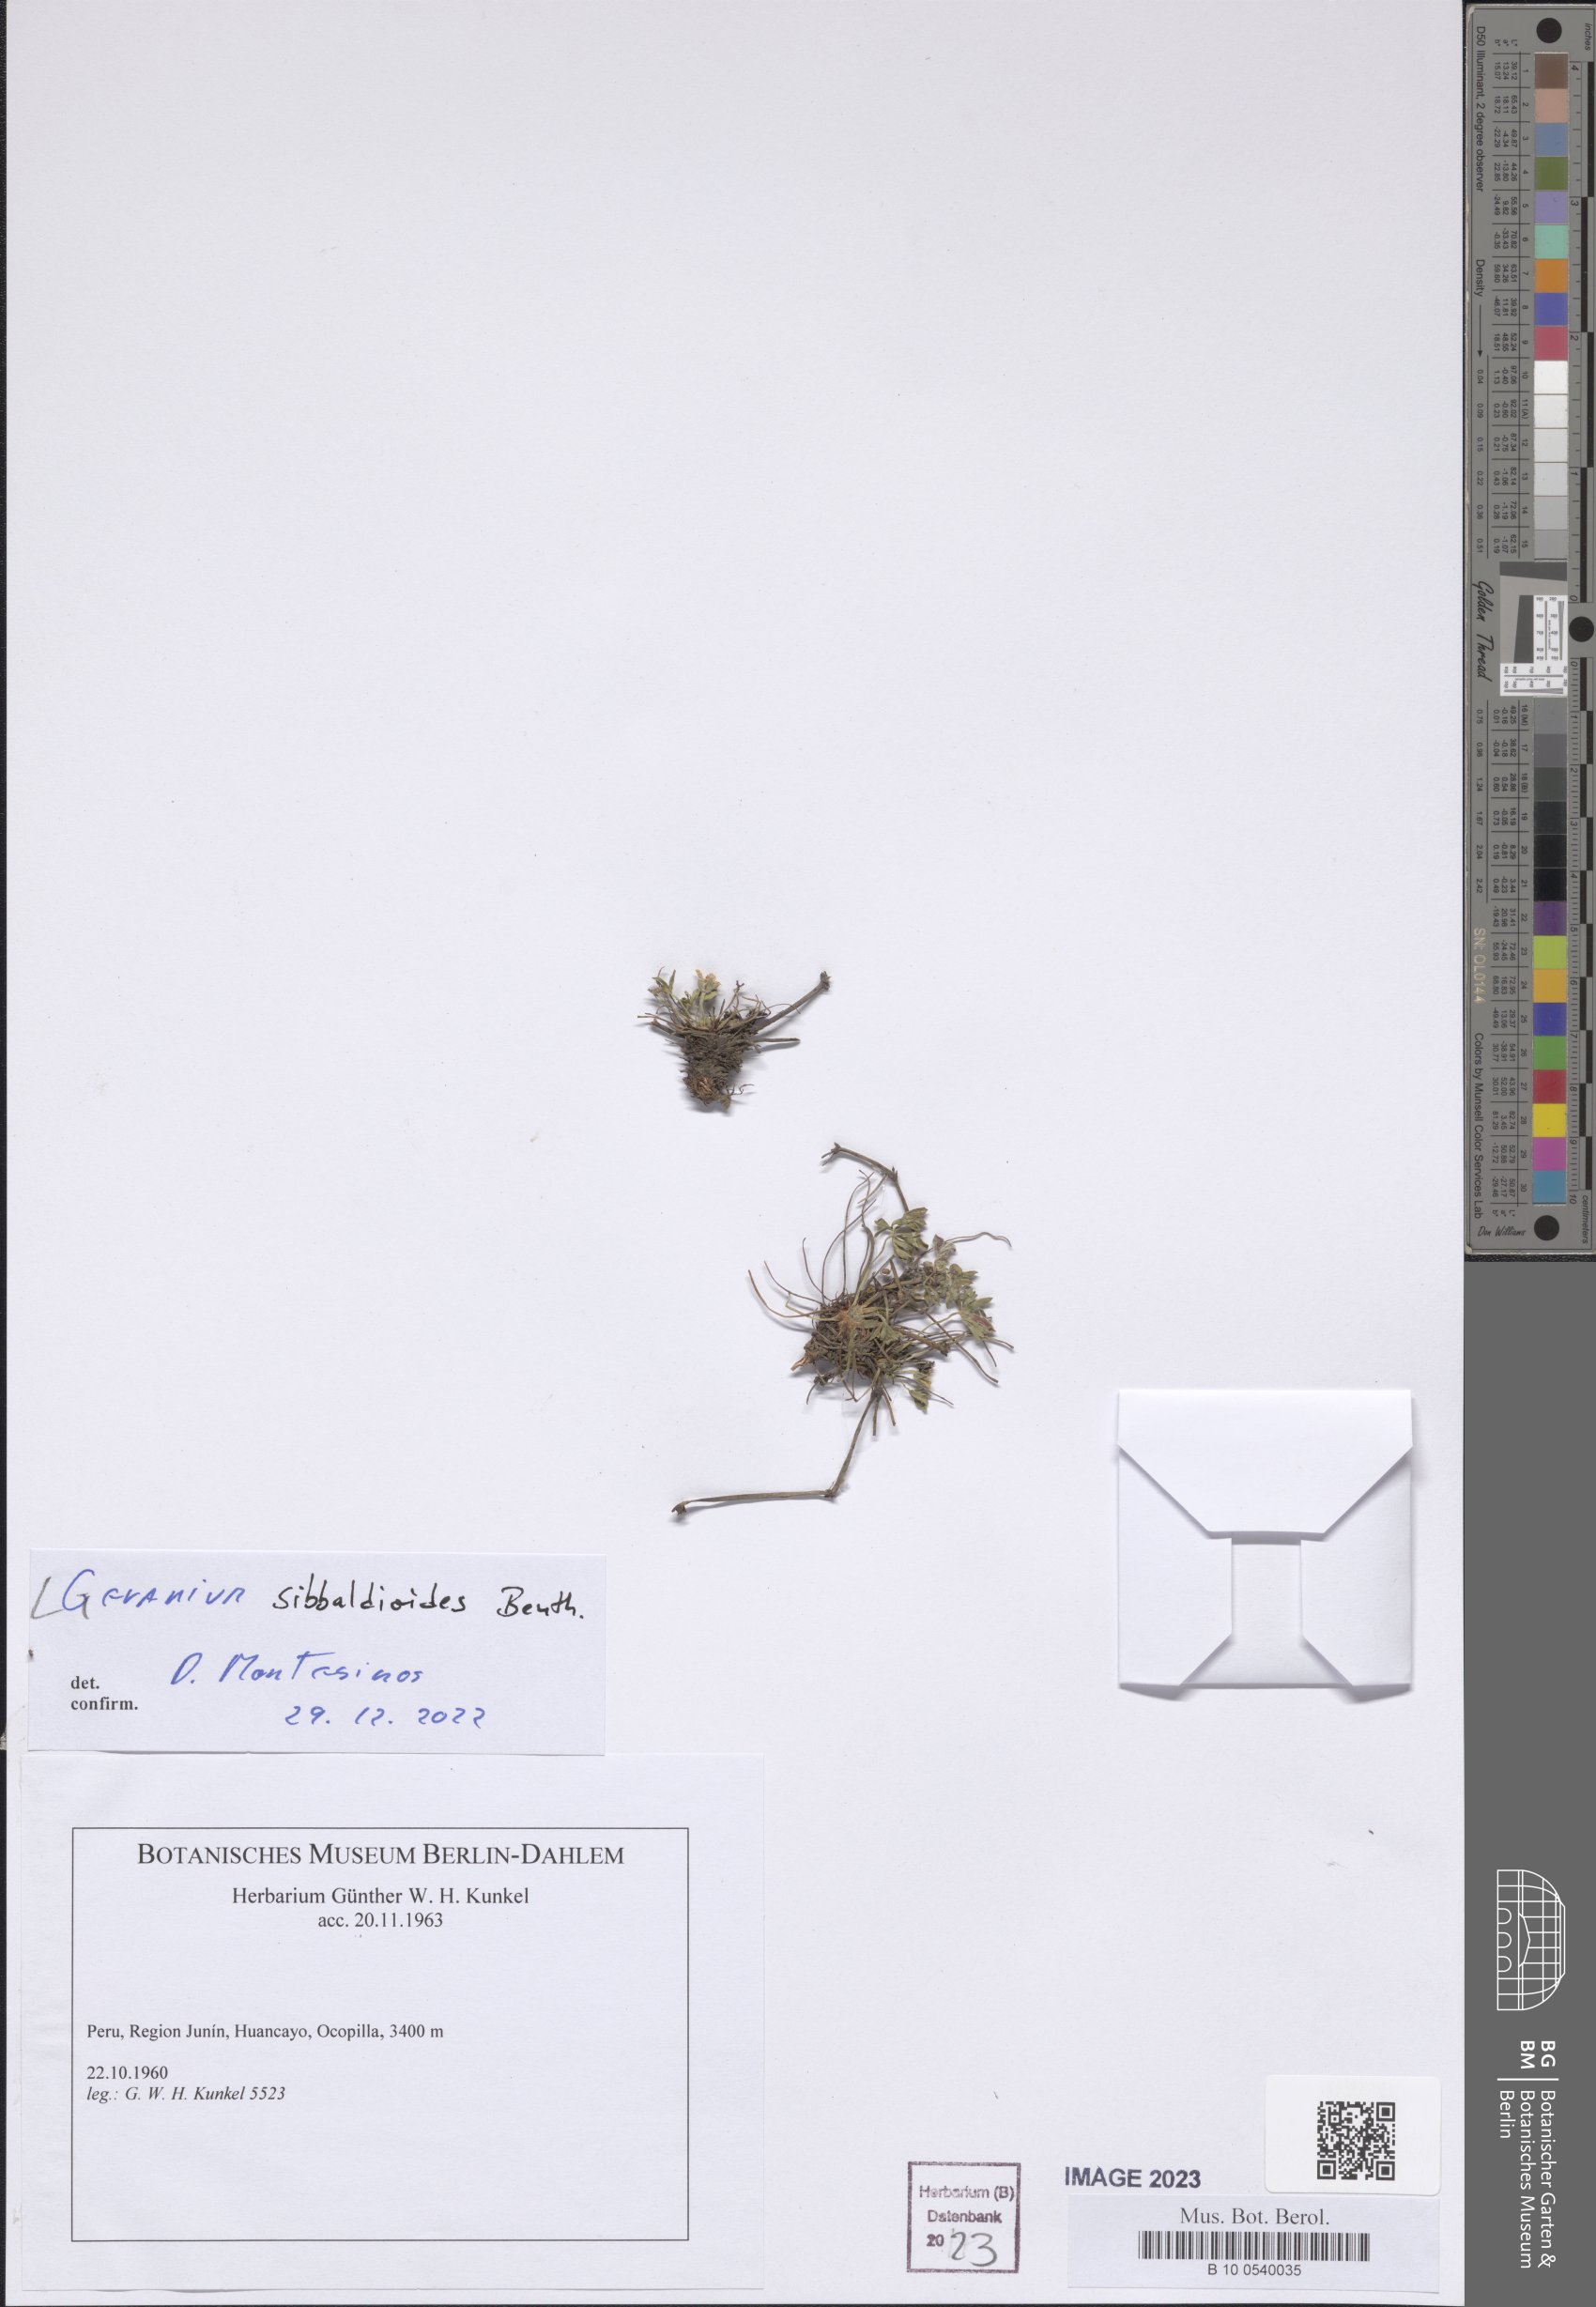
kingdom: Plantae
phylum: Tracheophyta
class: Magnoliopsida
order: Geraniales
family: Geraniaceae
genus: Geranium
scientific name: Geranium sibbaldioides
